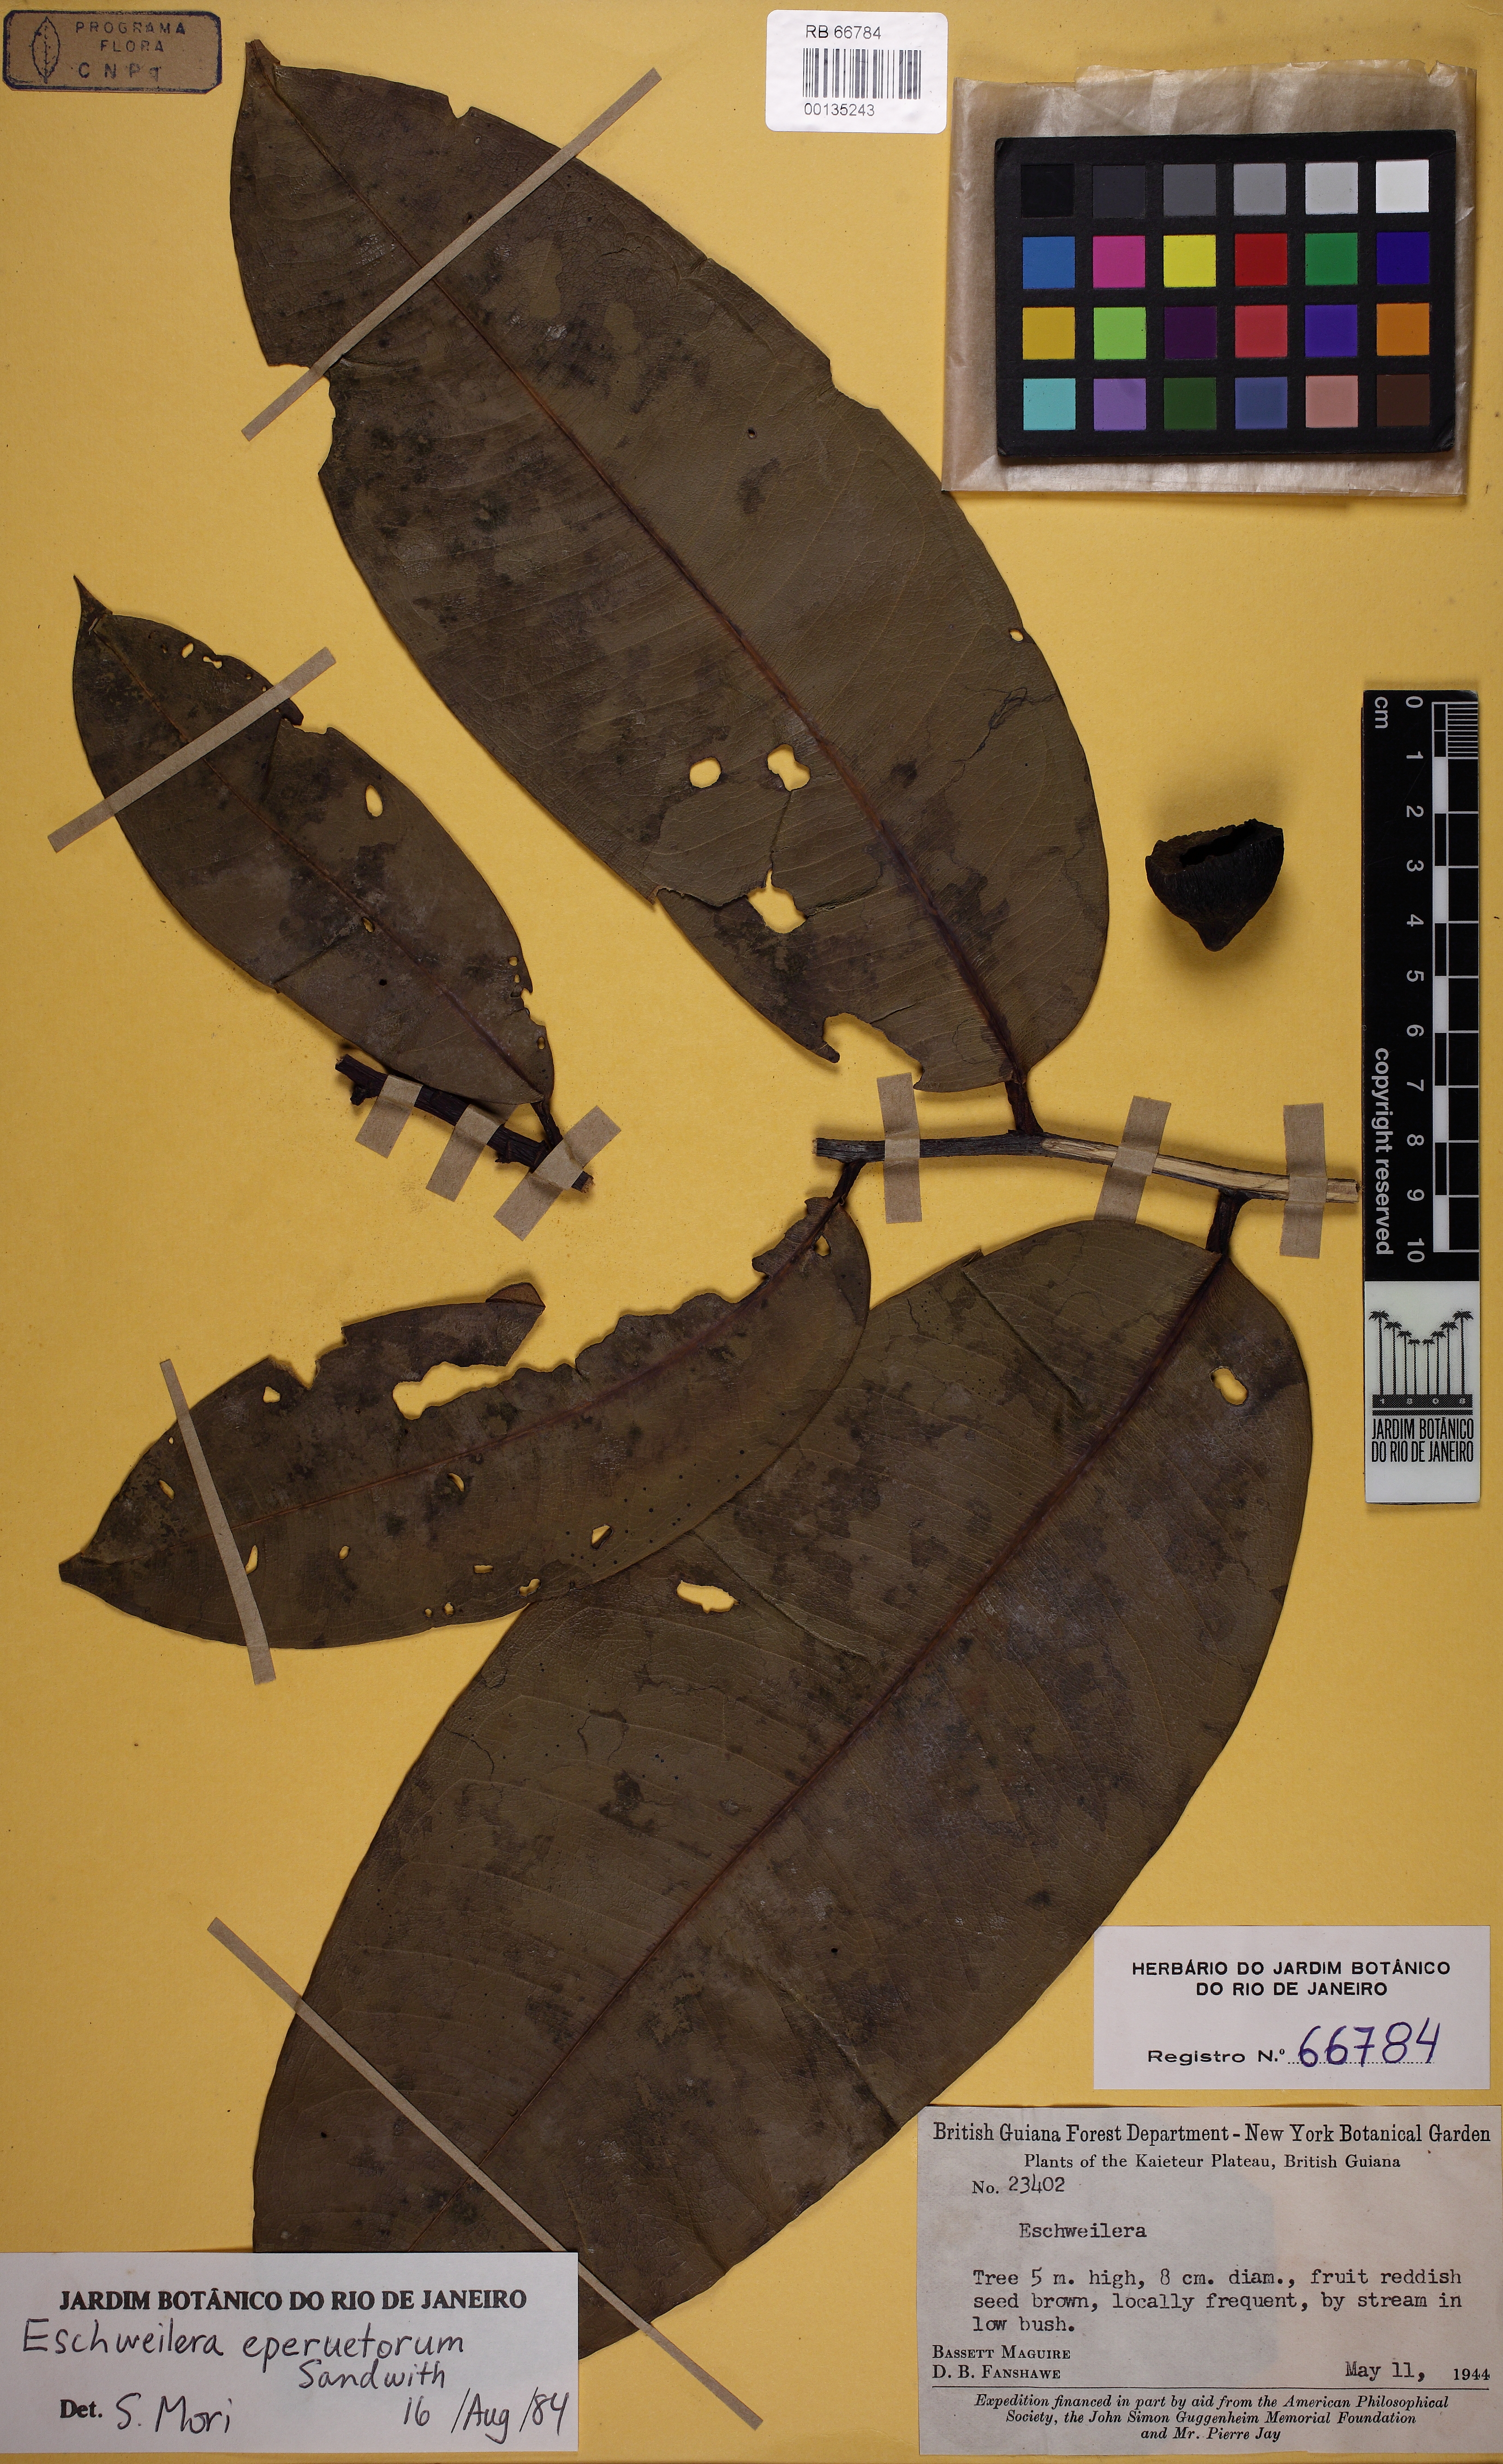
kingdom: Plantae
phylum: Tracheophyta
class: Magnoliopsida
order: Ericales
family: Lecythidaceae
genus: Eschweilera
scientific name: Eschweilera eperuetorum
